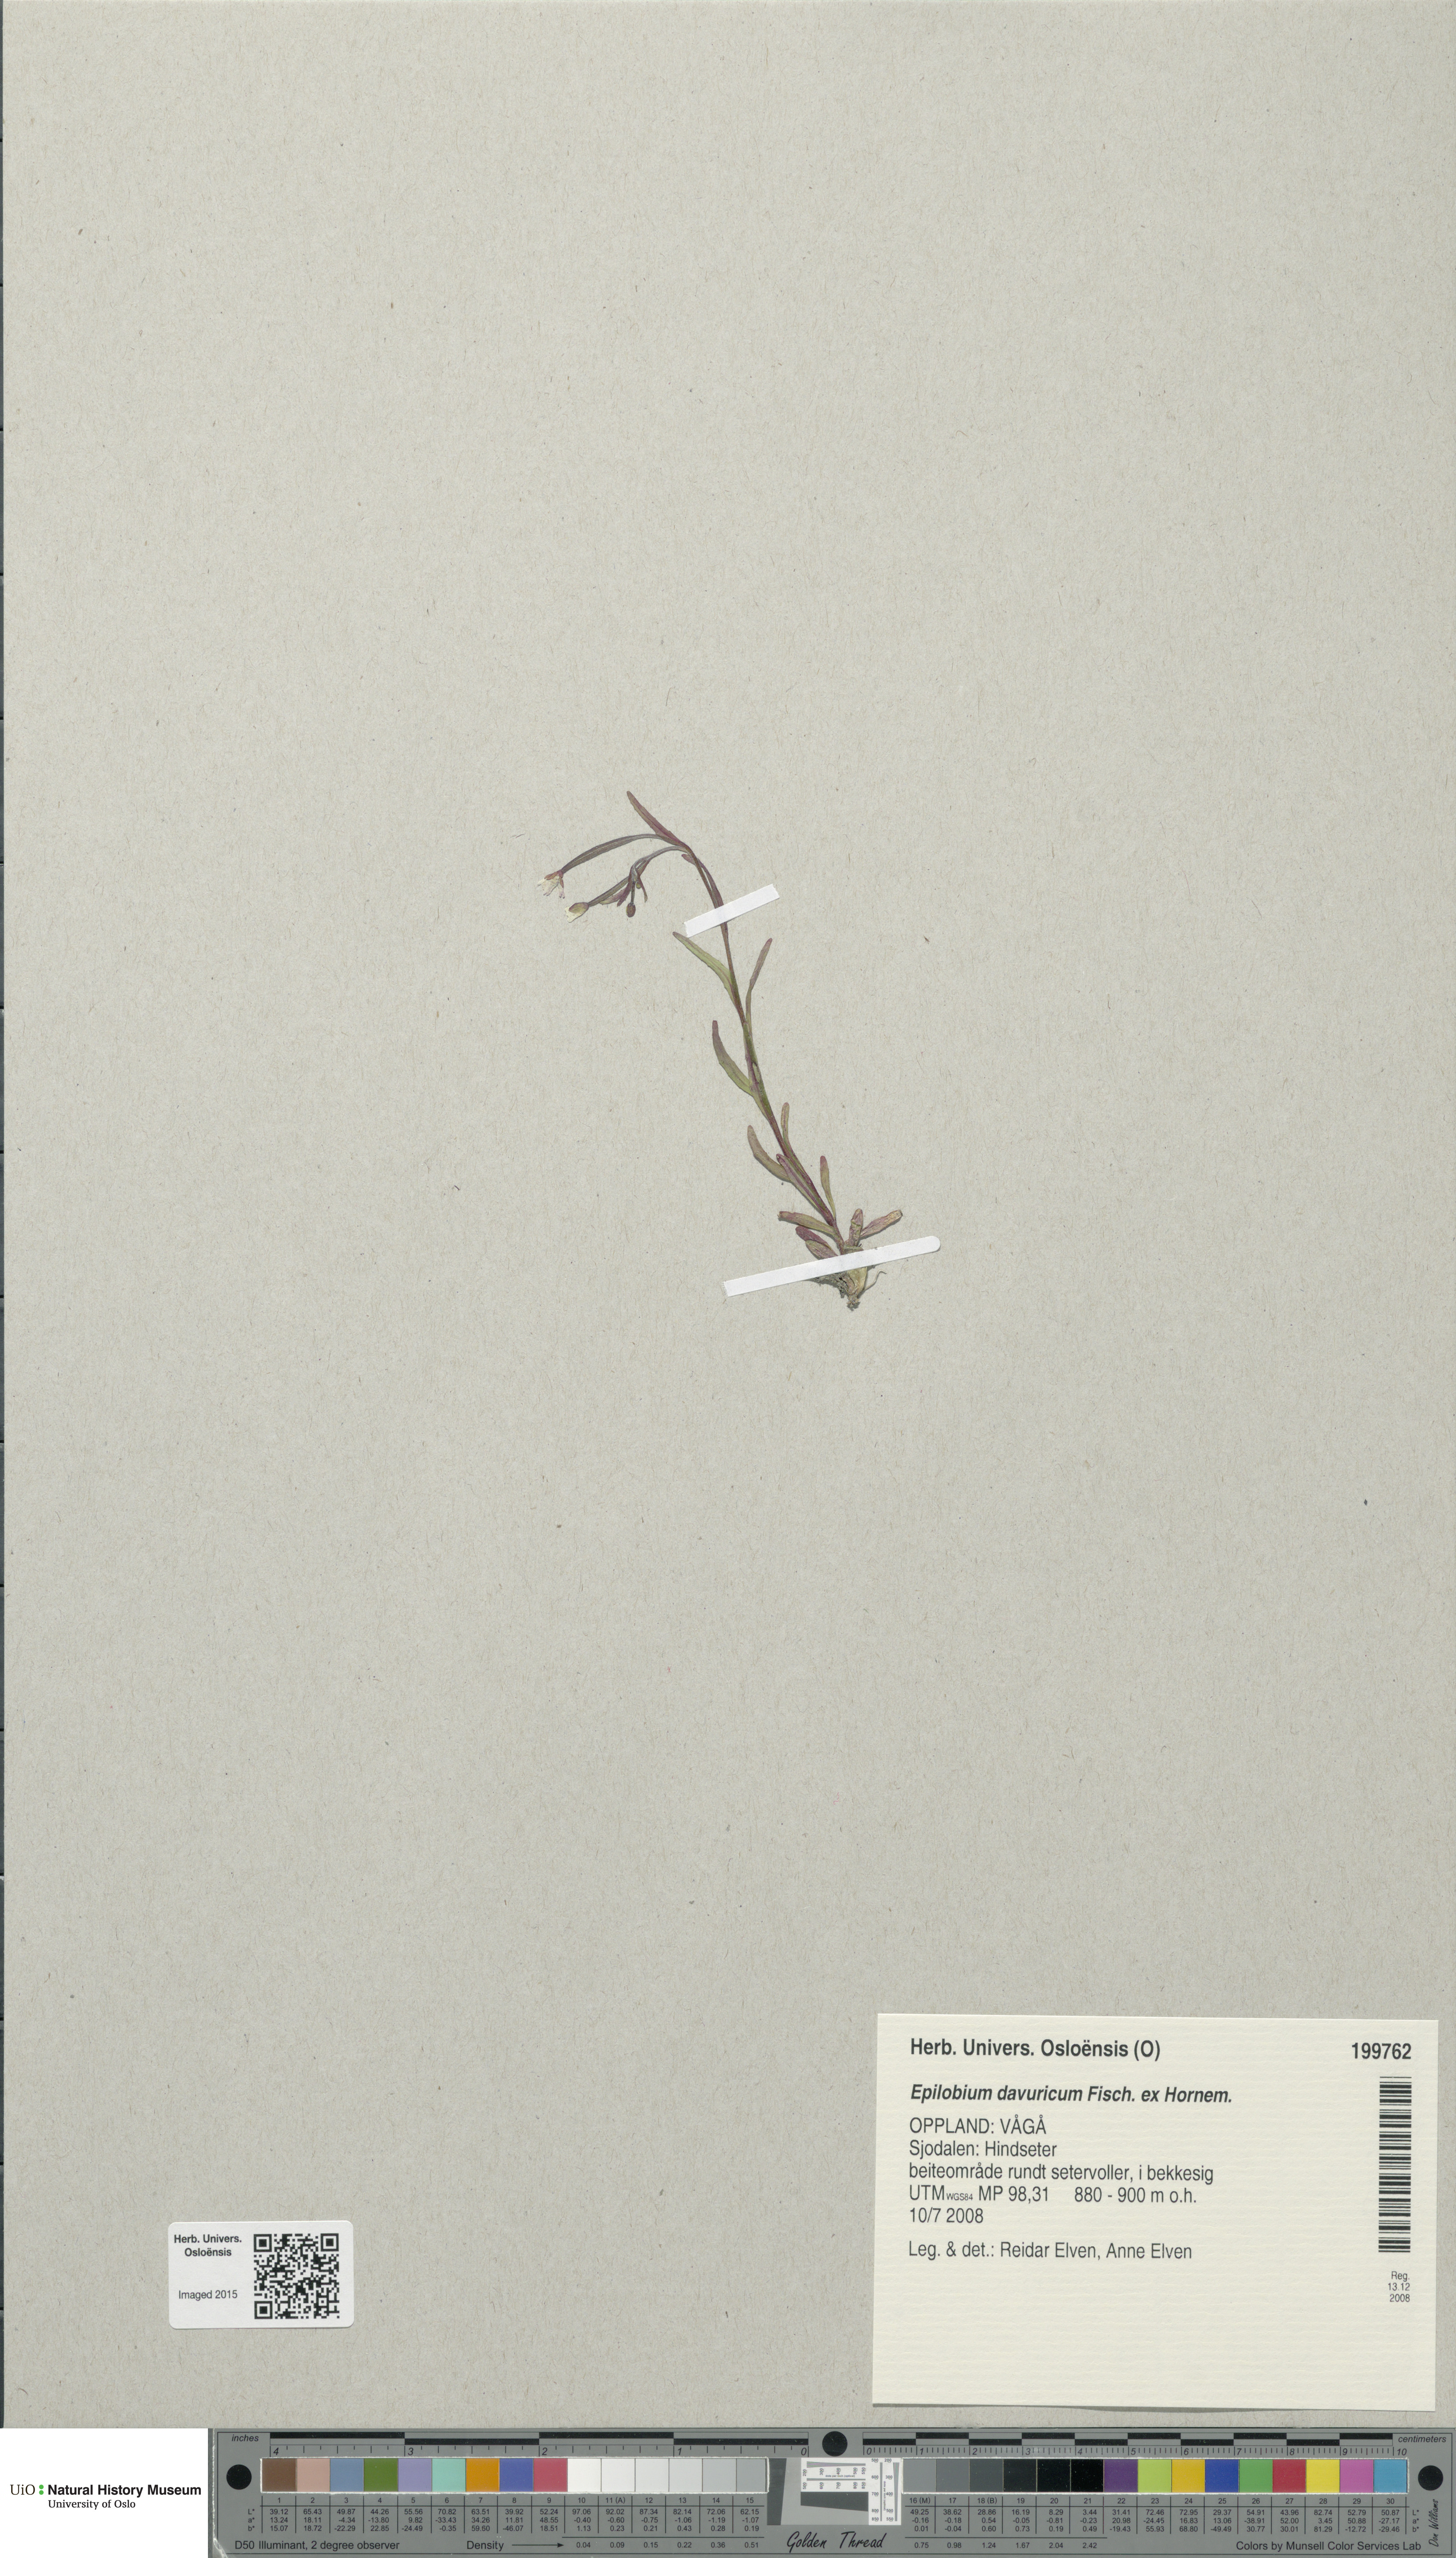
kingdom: Plantae
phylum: Tracheophyta
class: Magnoliopsida
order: Myrtales
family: Onagraceae
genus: Epilobium
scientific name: Epilobium davuricum
